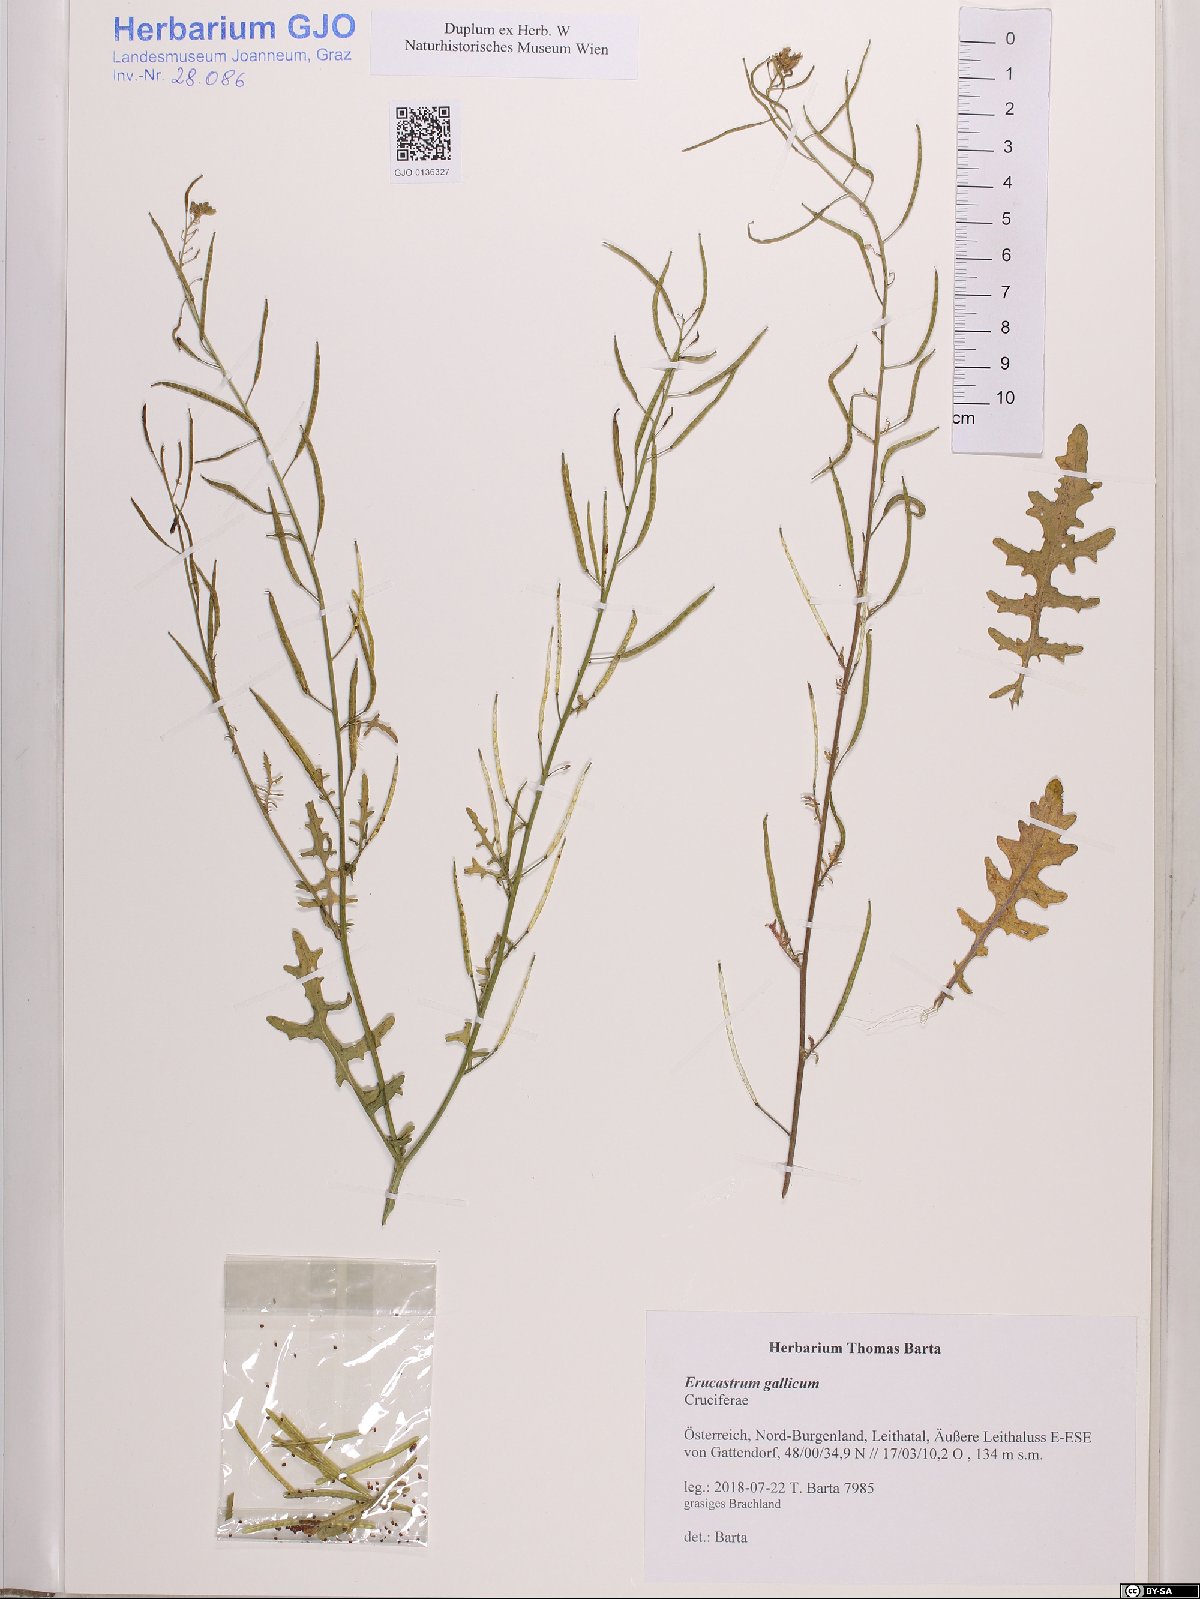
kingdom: Plantae
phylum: Tracheophyta
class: Magnoliopsida
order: Brassicales
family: Brassicaceae
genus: Erucastrum
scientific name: Erucastrum gallicum
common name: Hairy rocket
